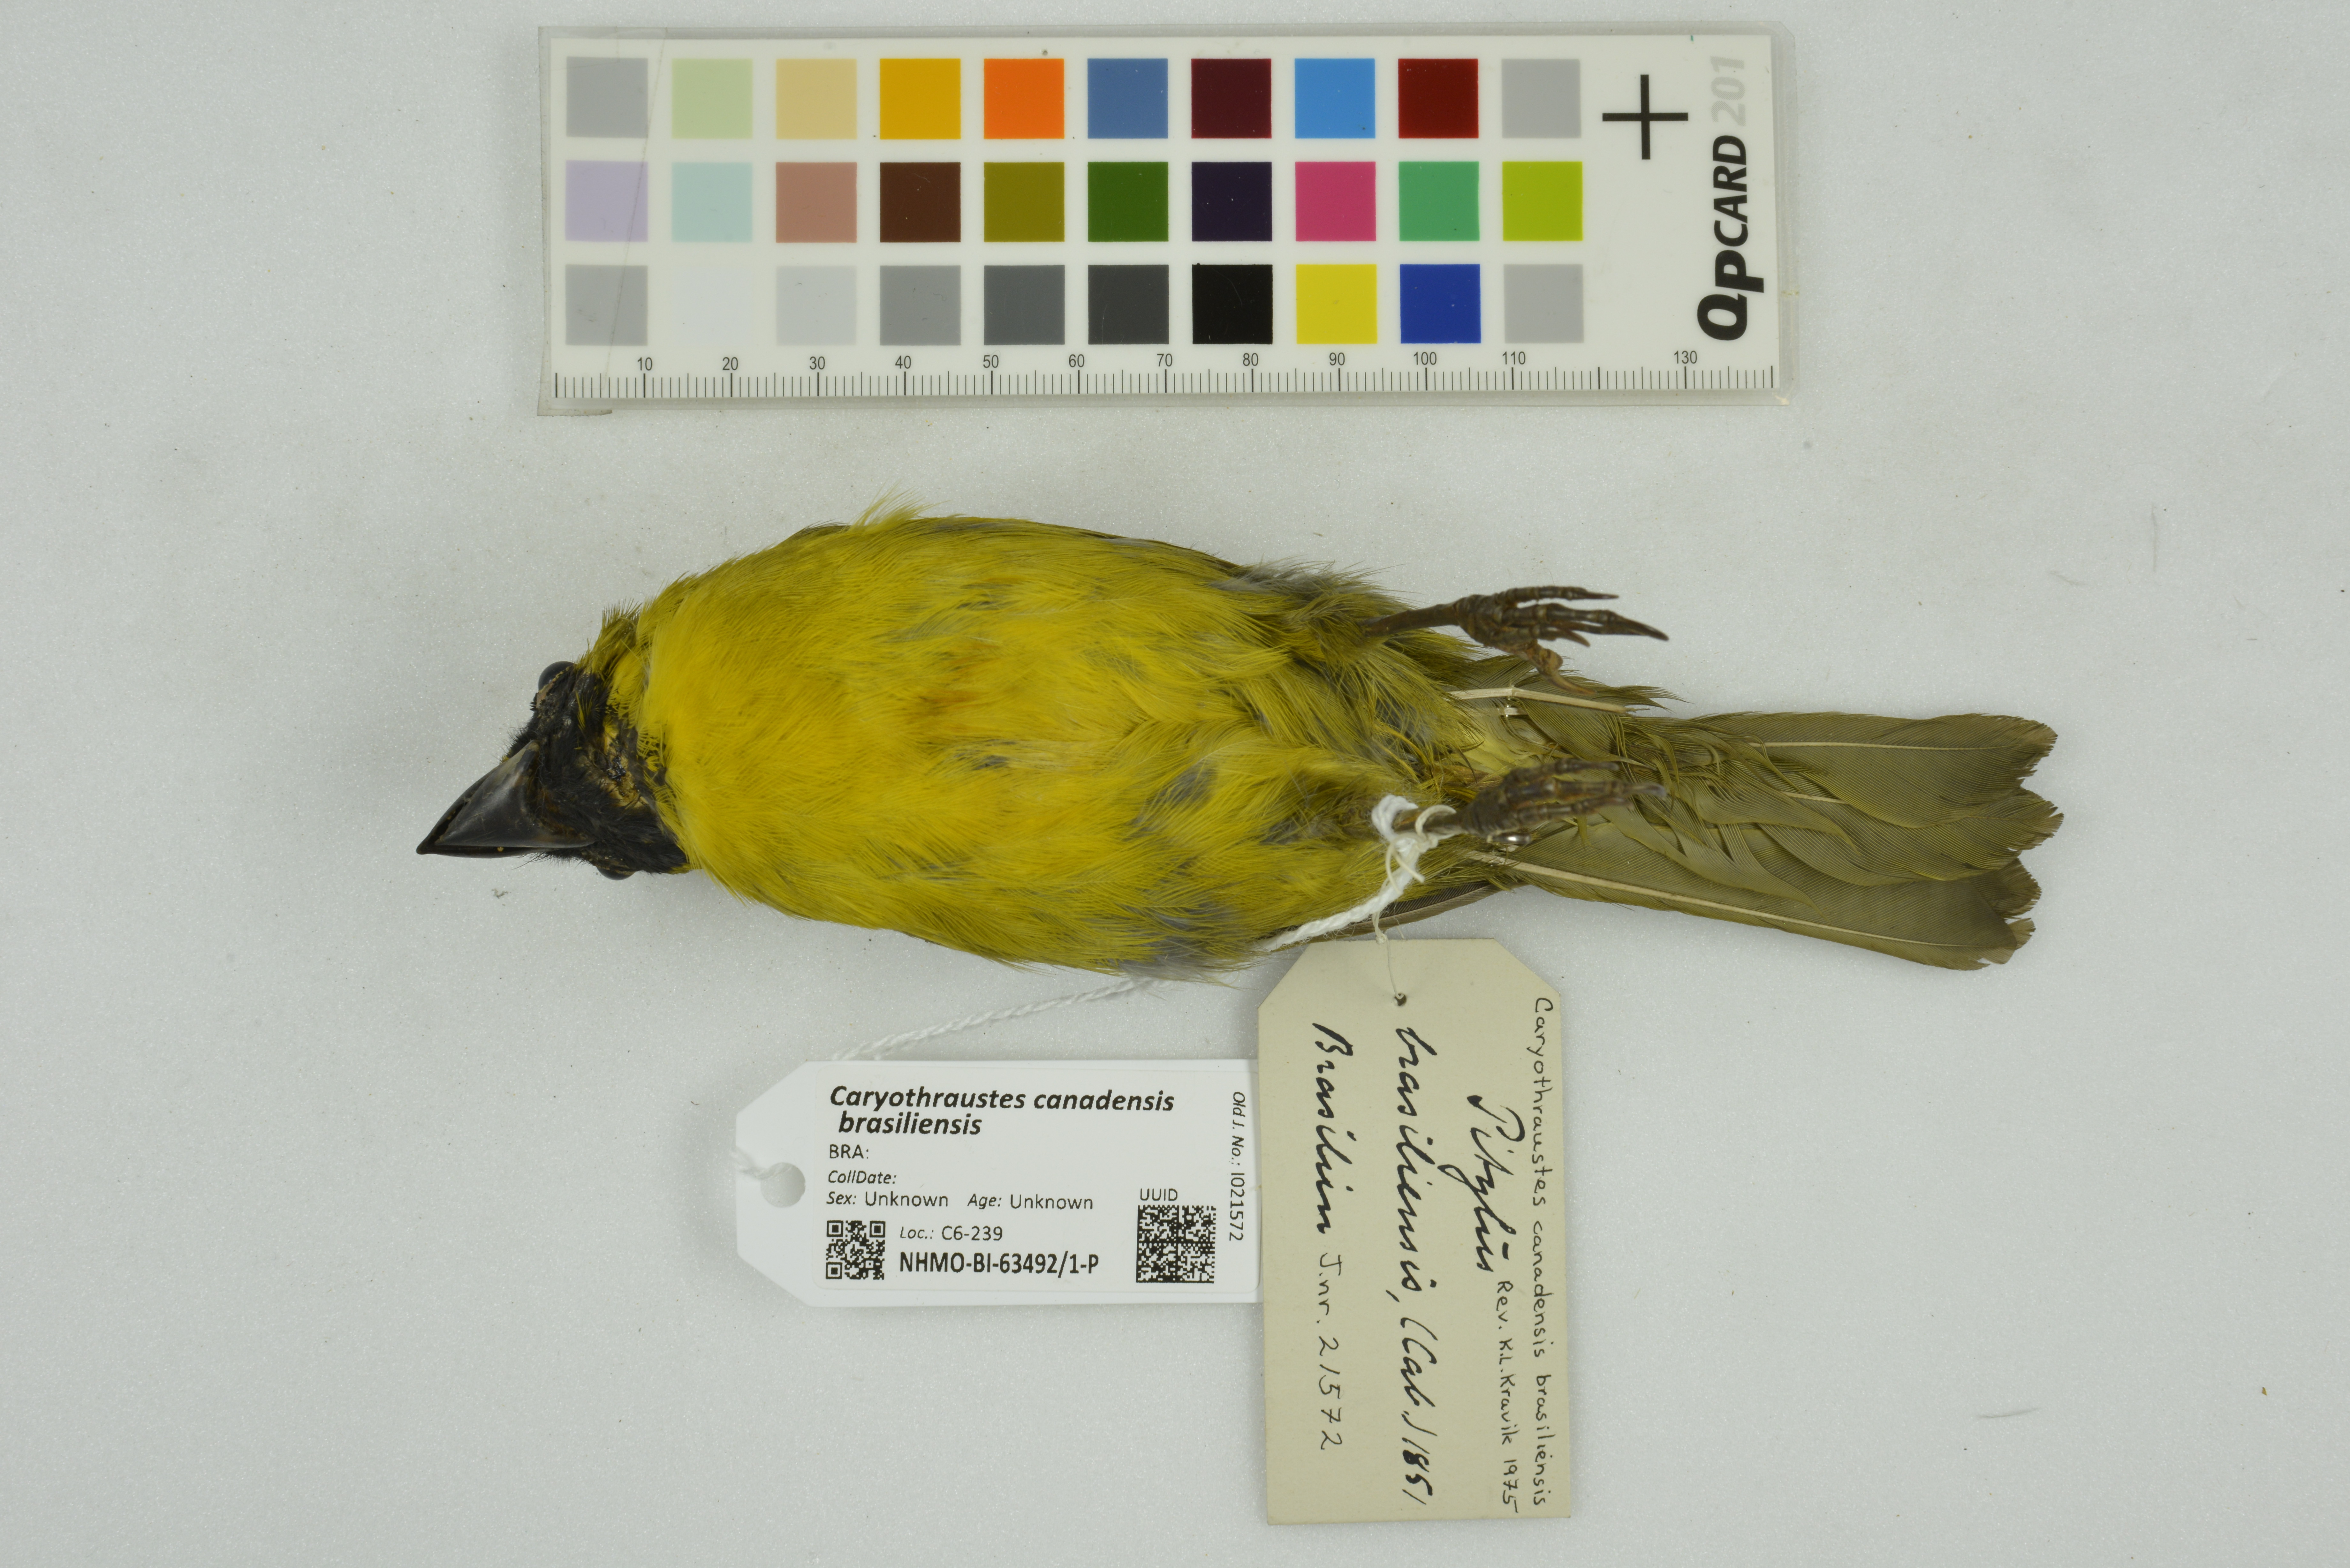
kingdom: Animalia
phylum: Chordata
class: Aves
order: Passeriformes
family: Cardinalidae
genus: Caryothraustes
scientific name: Caryothraustes canadensis
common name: Yellow-green grosbeak
